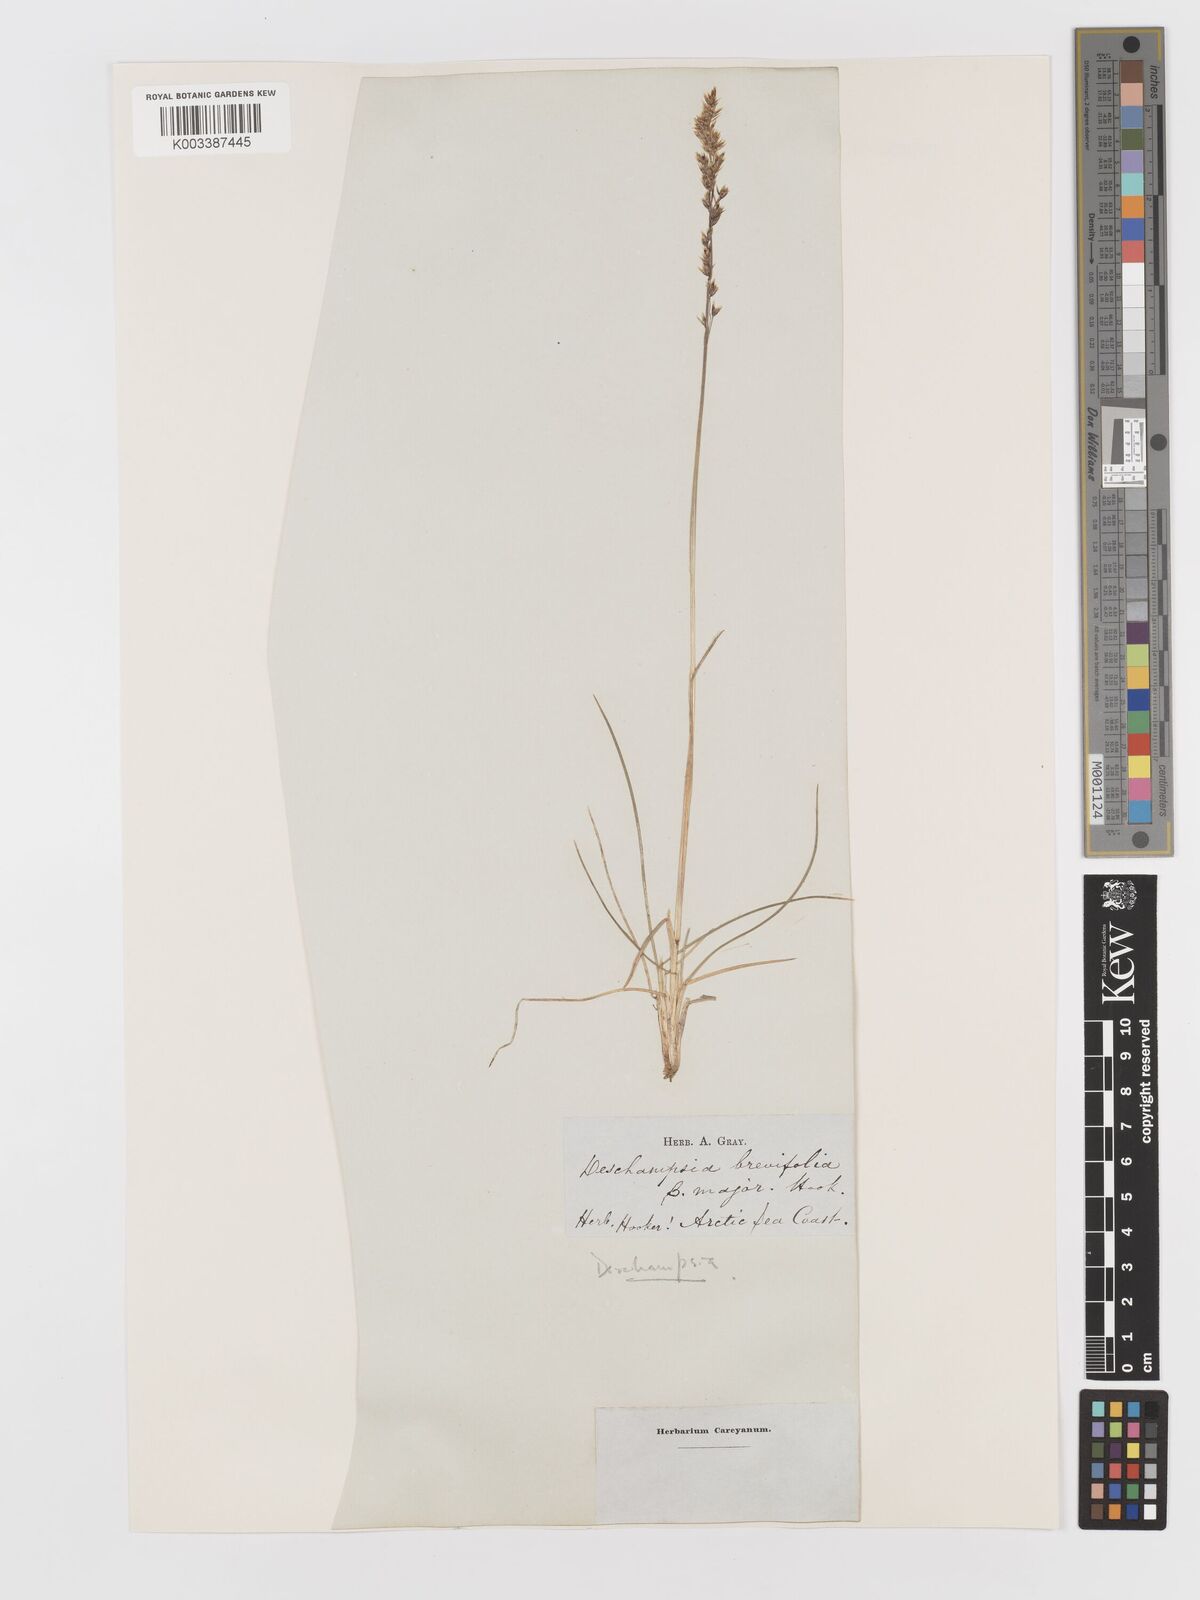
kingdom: Plantae
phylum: Tracheophyta
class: Liliopsida
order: Poales
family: Poaceae
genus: Deschampsia
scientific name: Deschampsia
